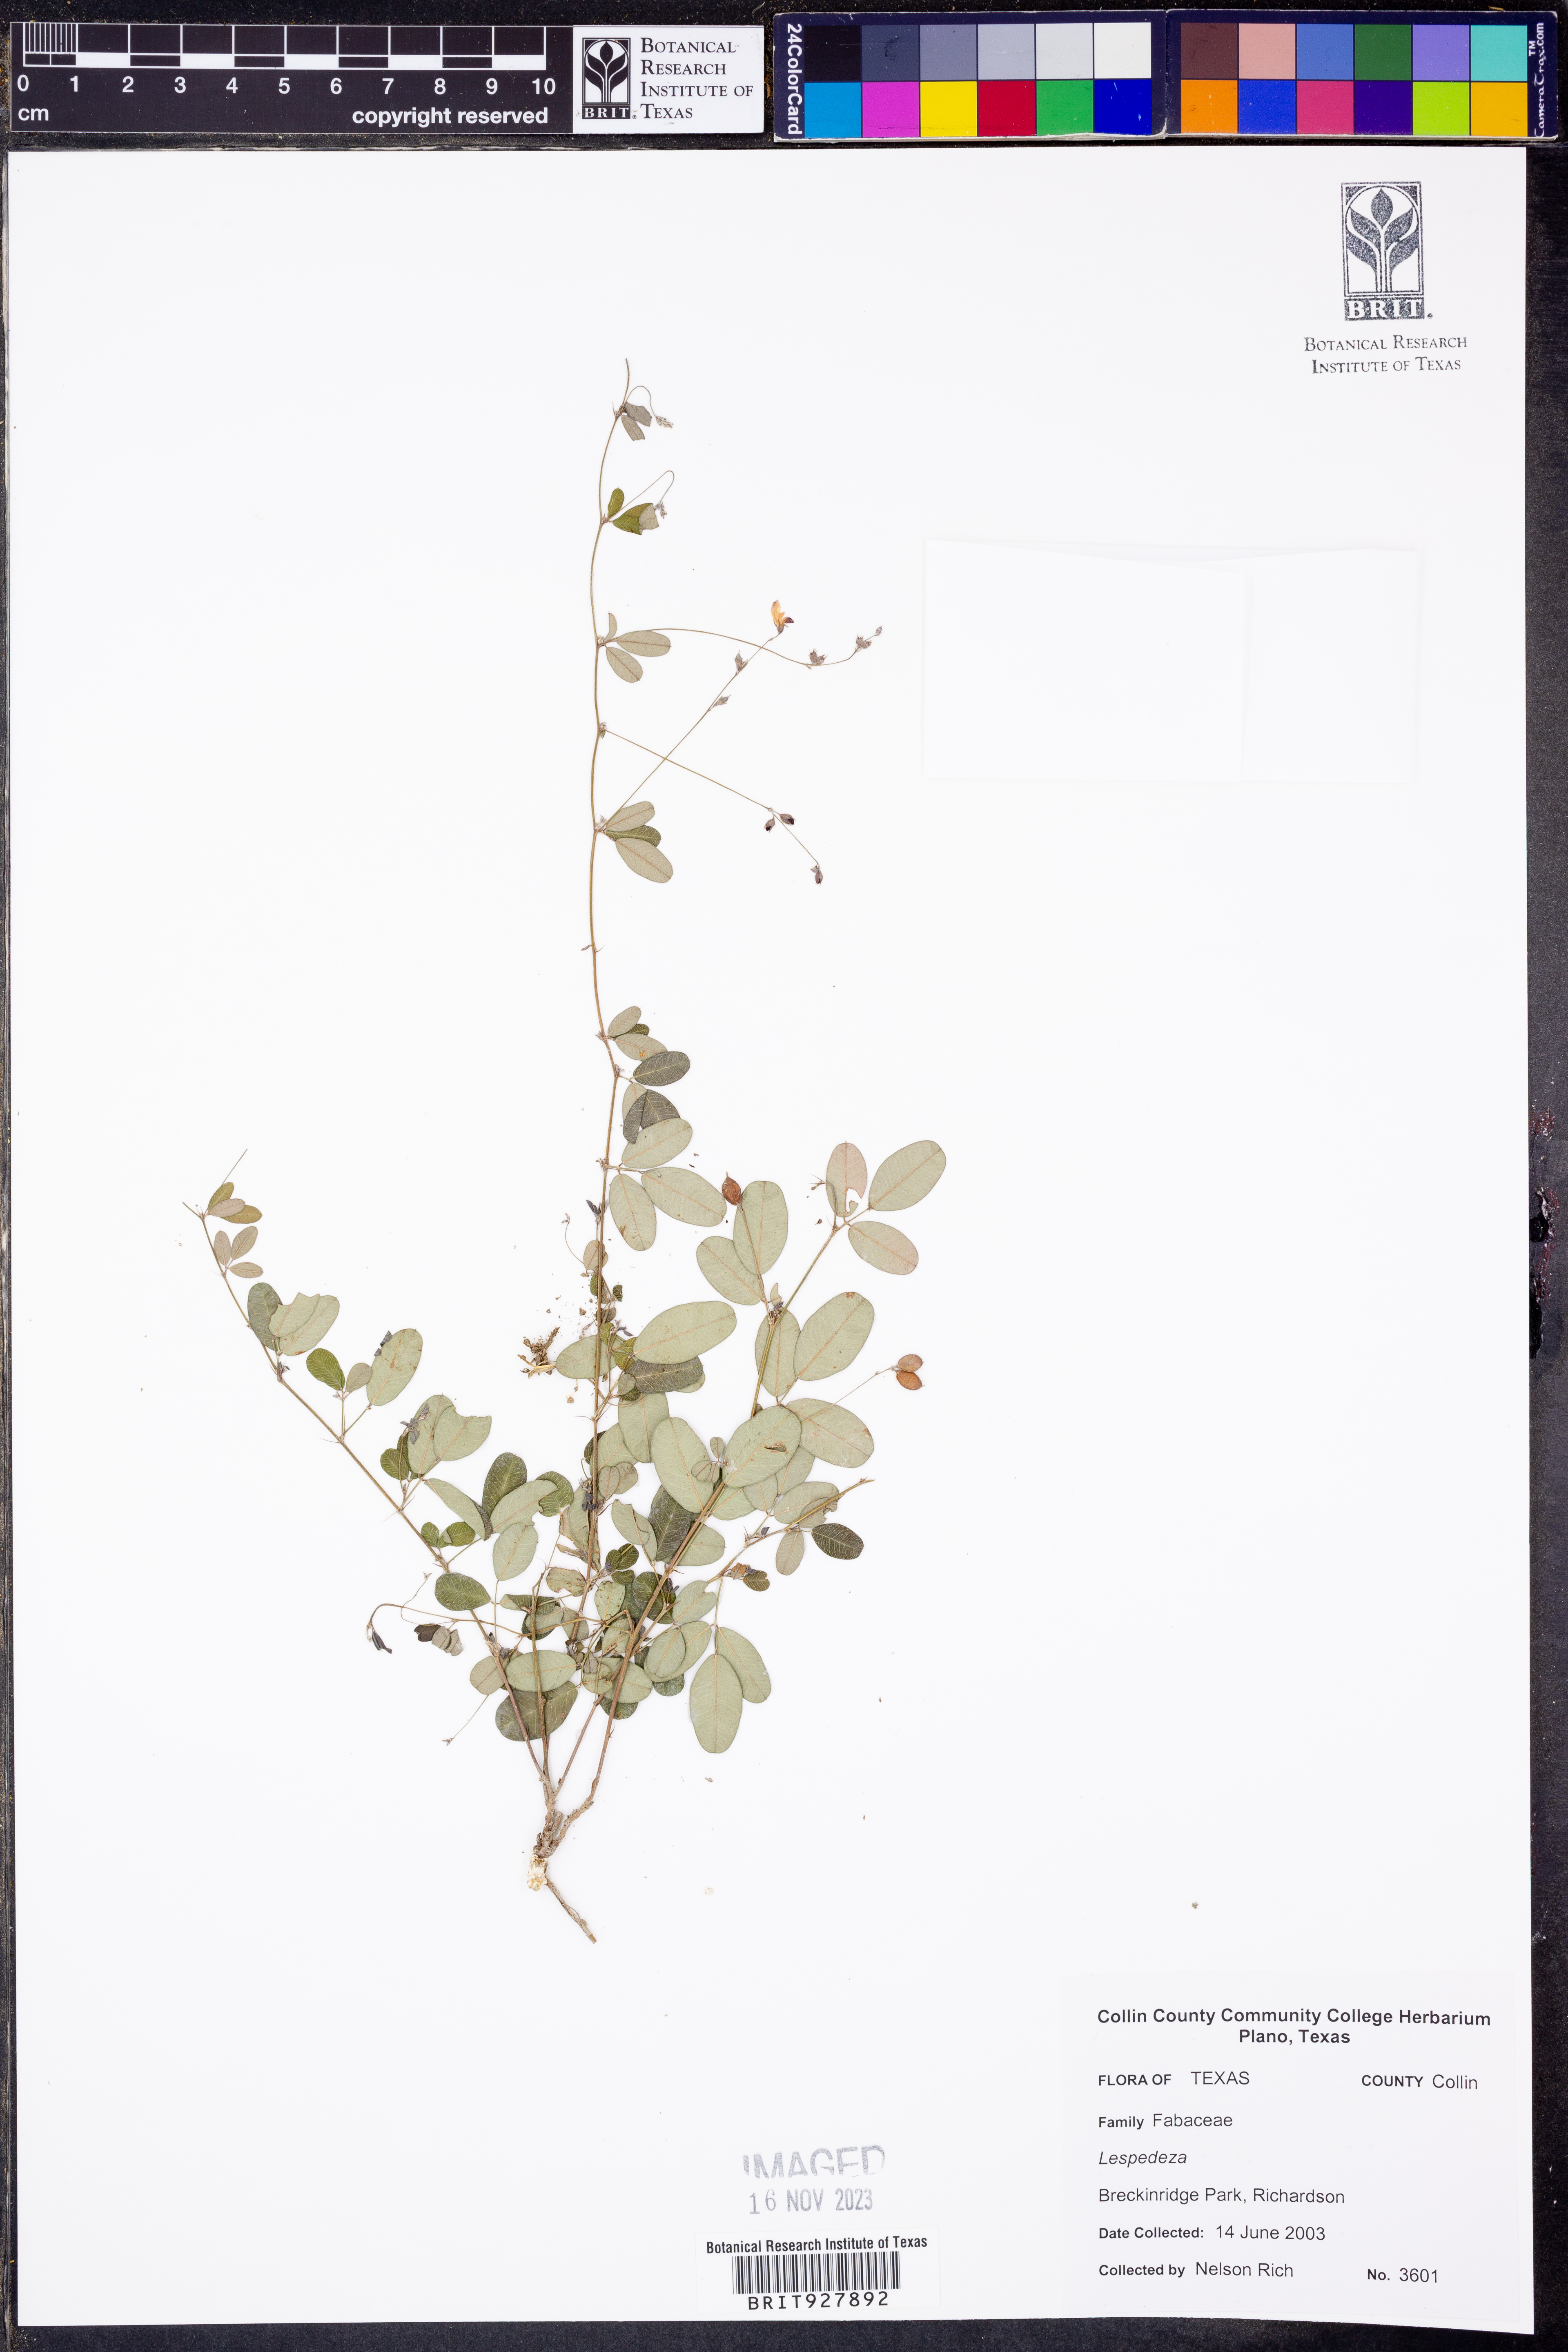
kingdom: Plantae
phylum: Tracheophyta
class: Magnoliopsida
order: Fabales
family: Fabaceae
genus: Lespedeza
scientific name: Lespedeza
